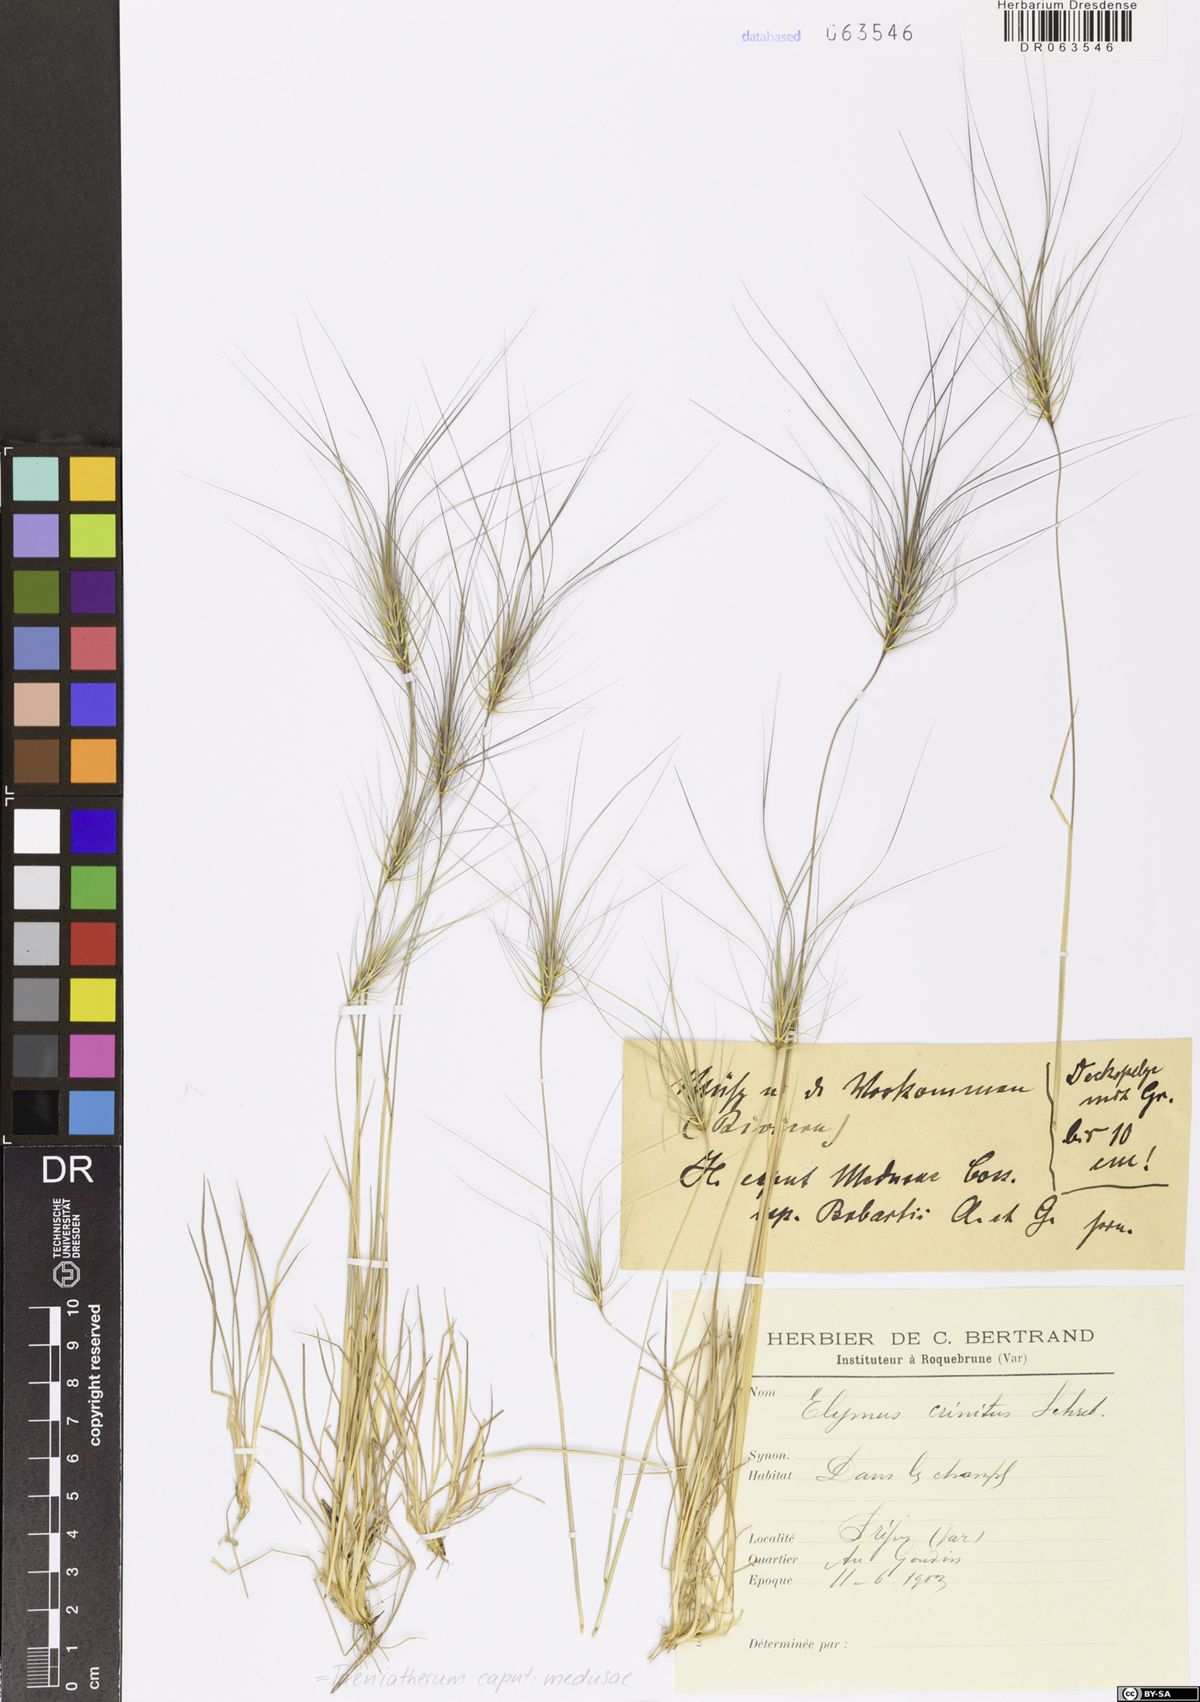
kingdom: Plantae
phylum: Tracheophyta
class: Liliopsida
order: Poales
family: Poaceae
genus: Taeniatherum
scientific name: Taeniatherum caput-medusae
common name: Medusahead
